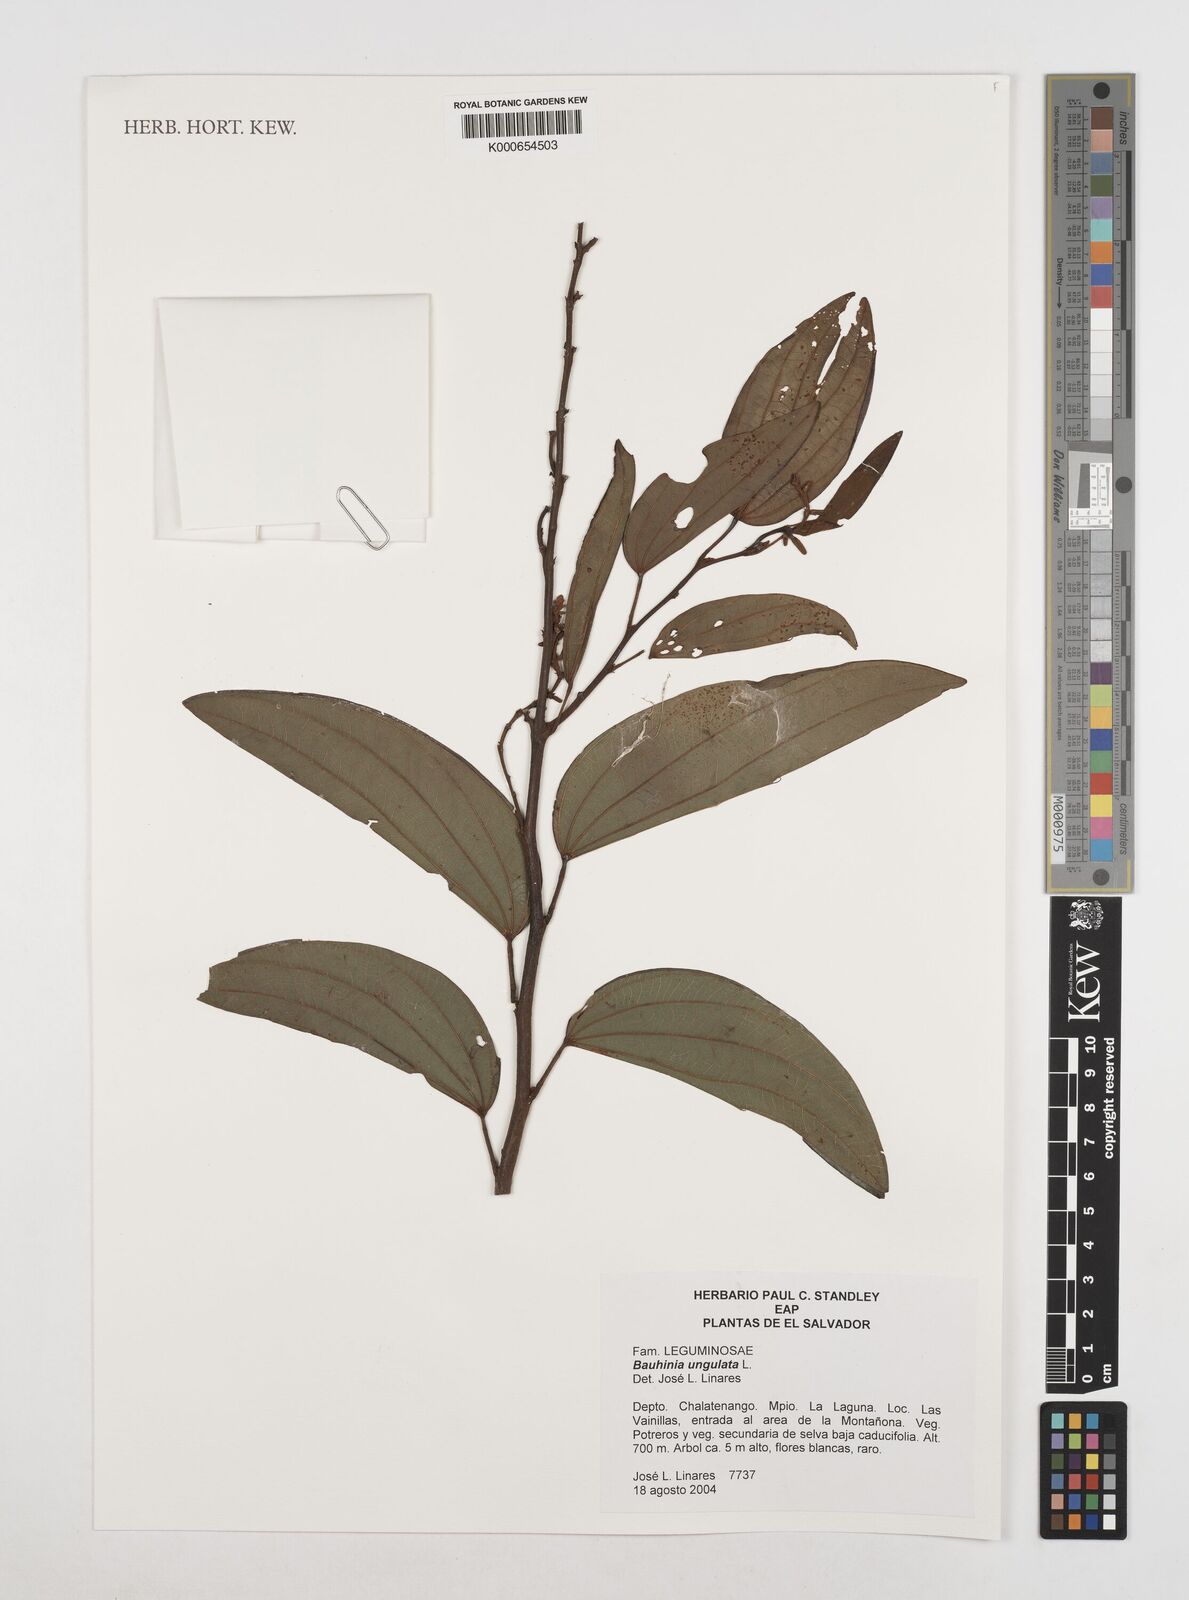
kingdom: Plantae
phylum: Tracheophyta
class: Magnoliopsida
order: Fabales
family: Fabaceae
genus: Bauhinia
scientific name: Bauhinia ungulata
